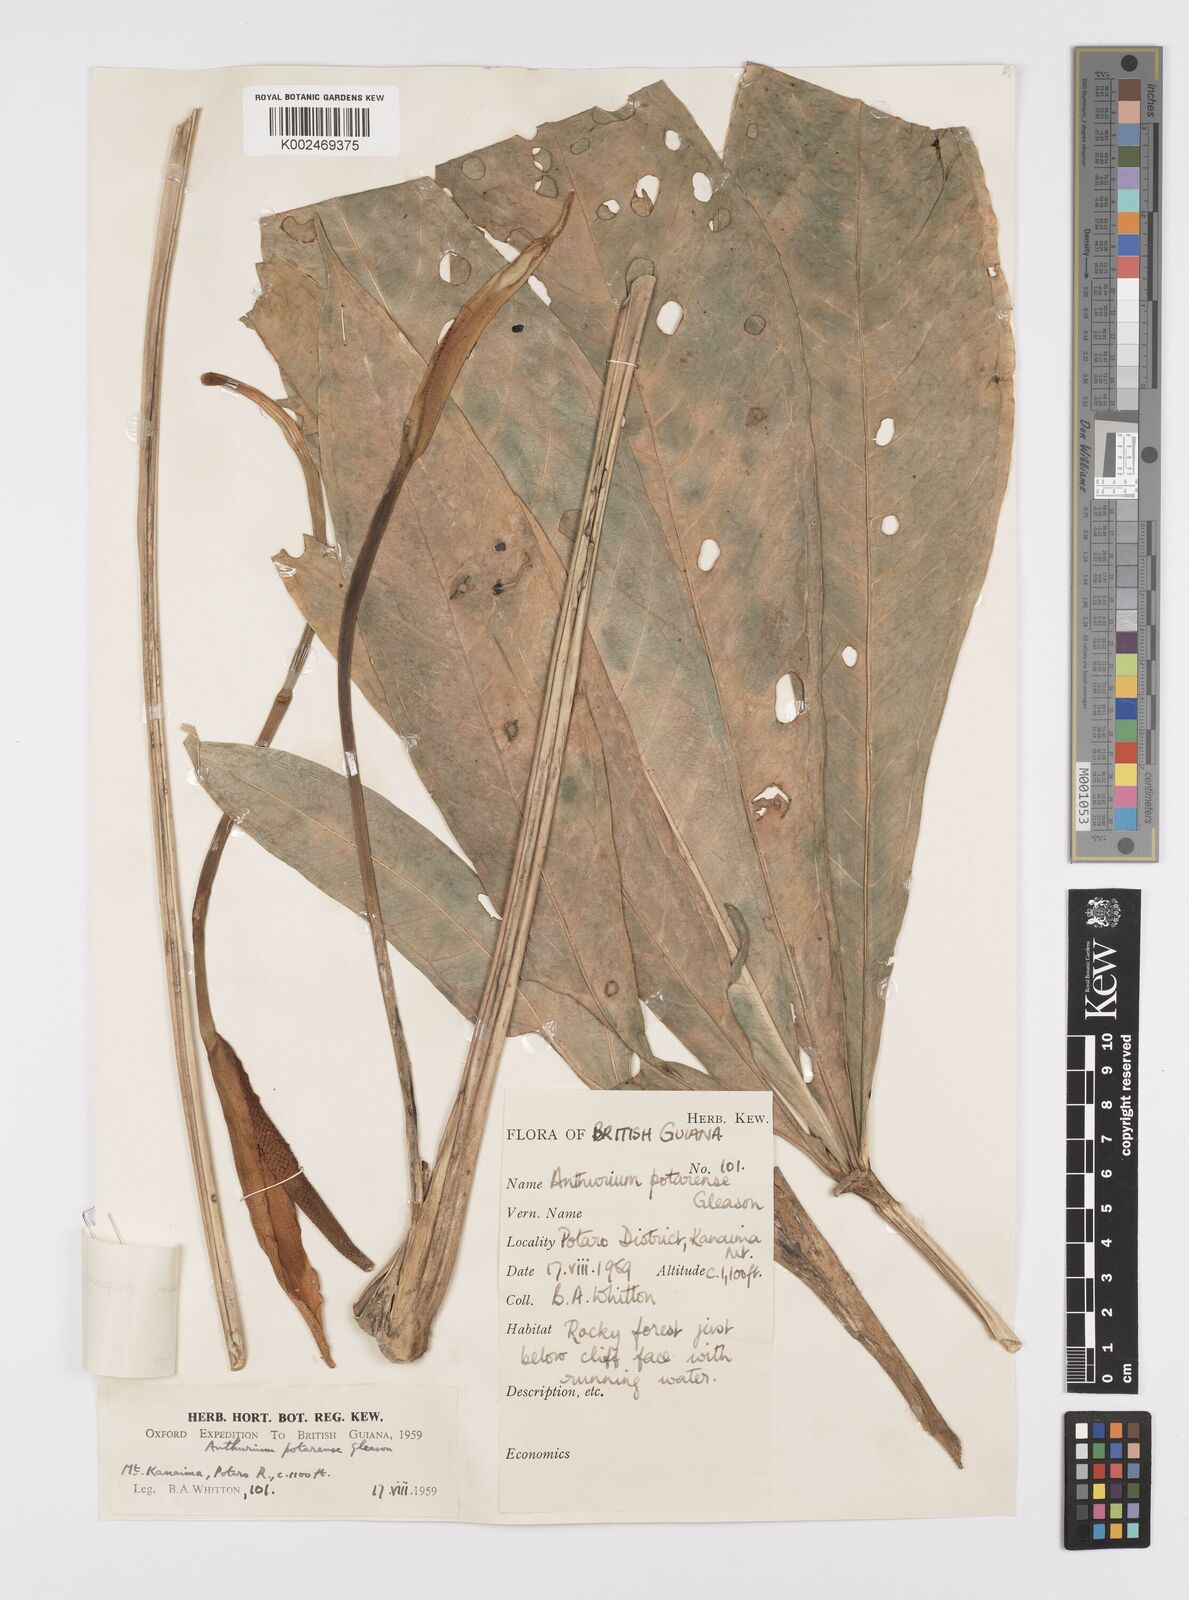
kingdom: Plantae
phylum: Tracheophyta
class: Liliopsida
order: Alismatales
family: Araceae
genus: Anthurium
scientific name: Anthurium expansum
